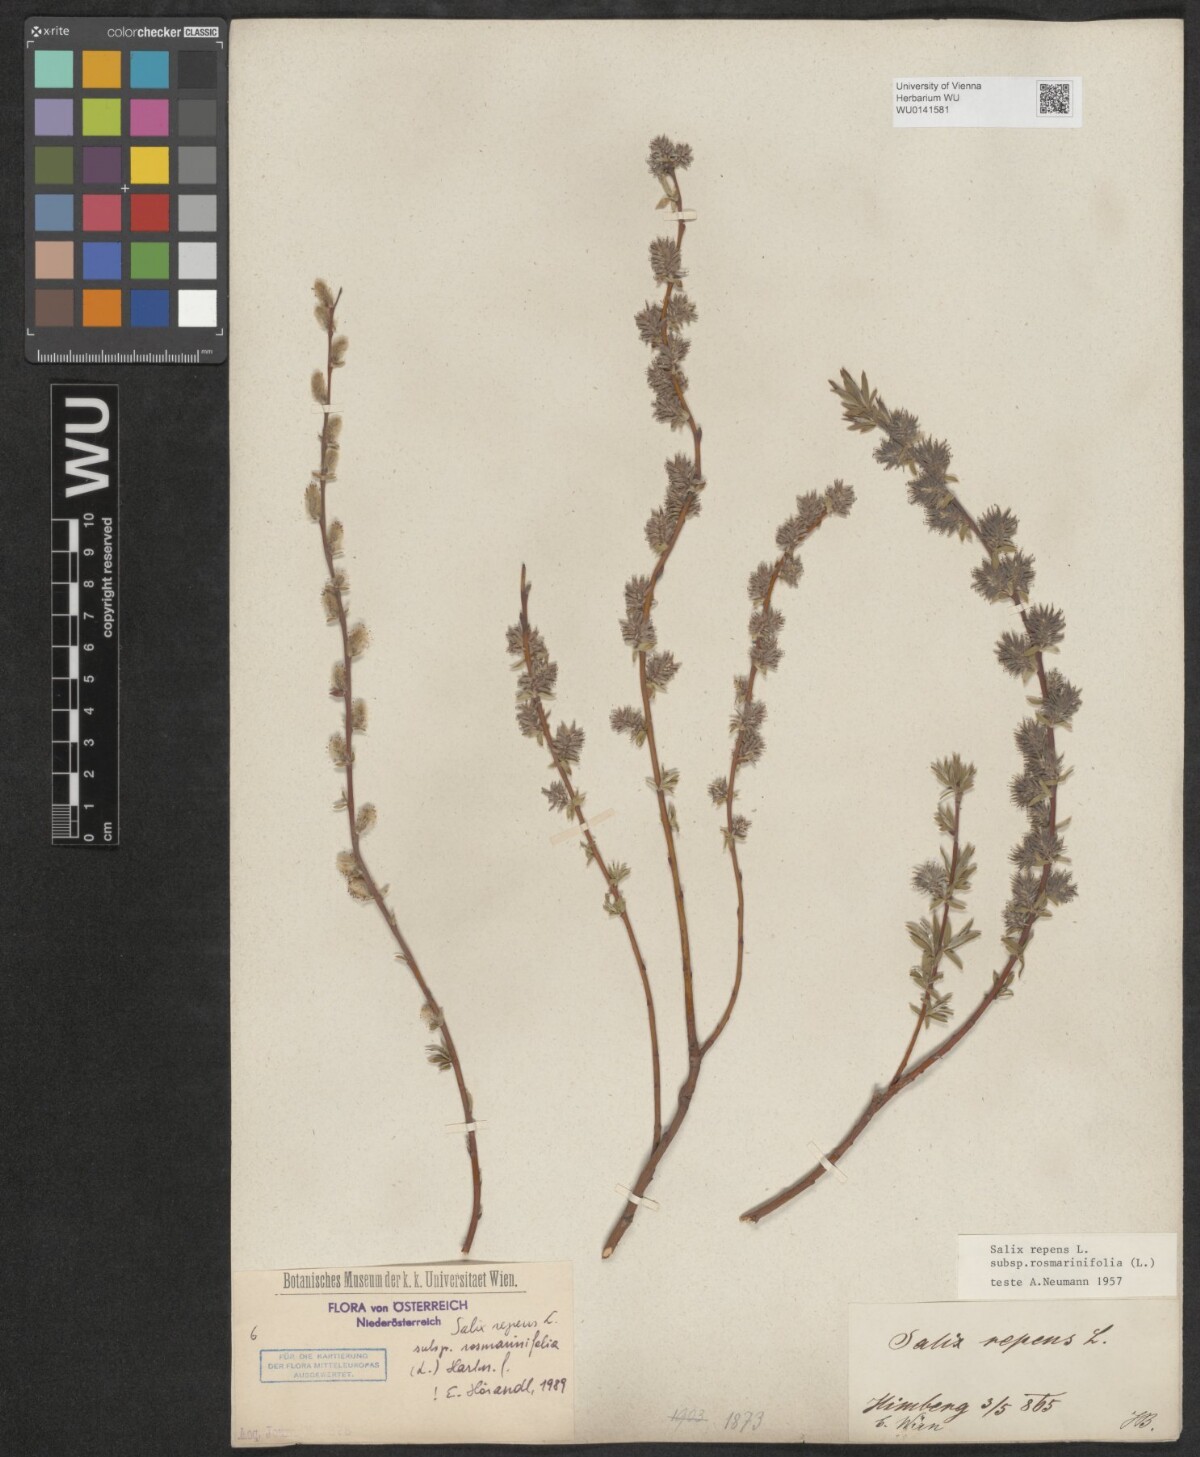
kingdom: Plantae
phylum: Tracheophyta
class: Magnoliopsida
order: Malpighiales
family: Salicaceae
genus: Salix
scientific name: Salix repens
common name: Creeping willow
